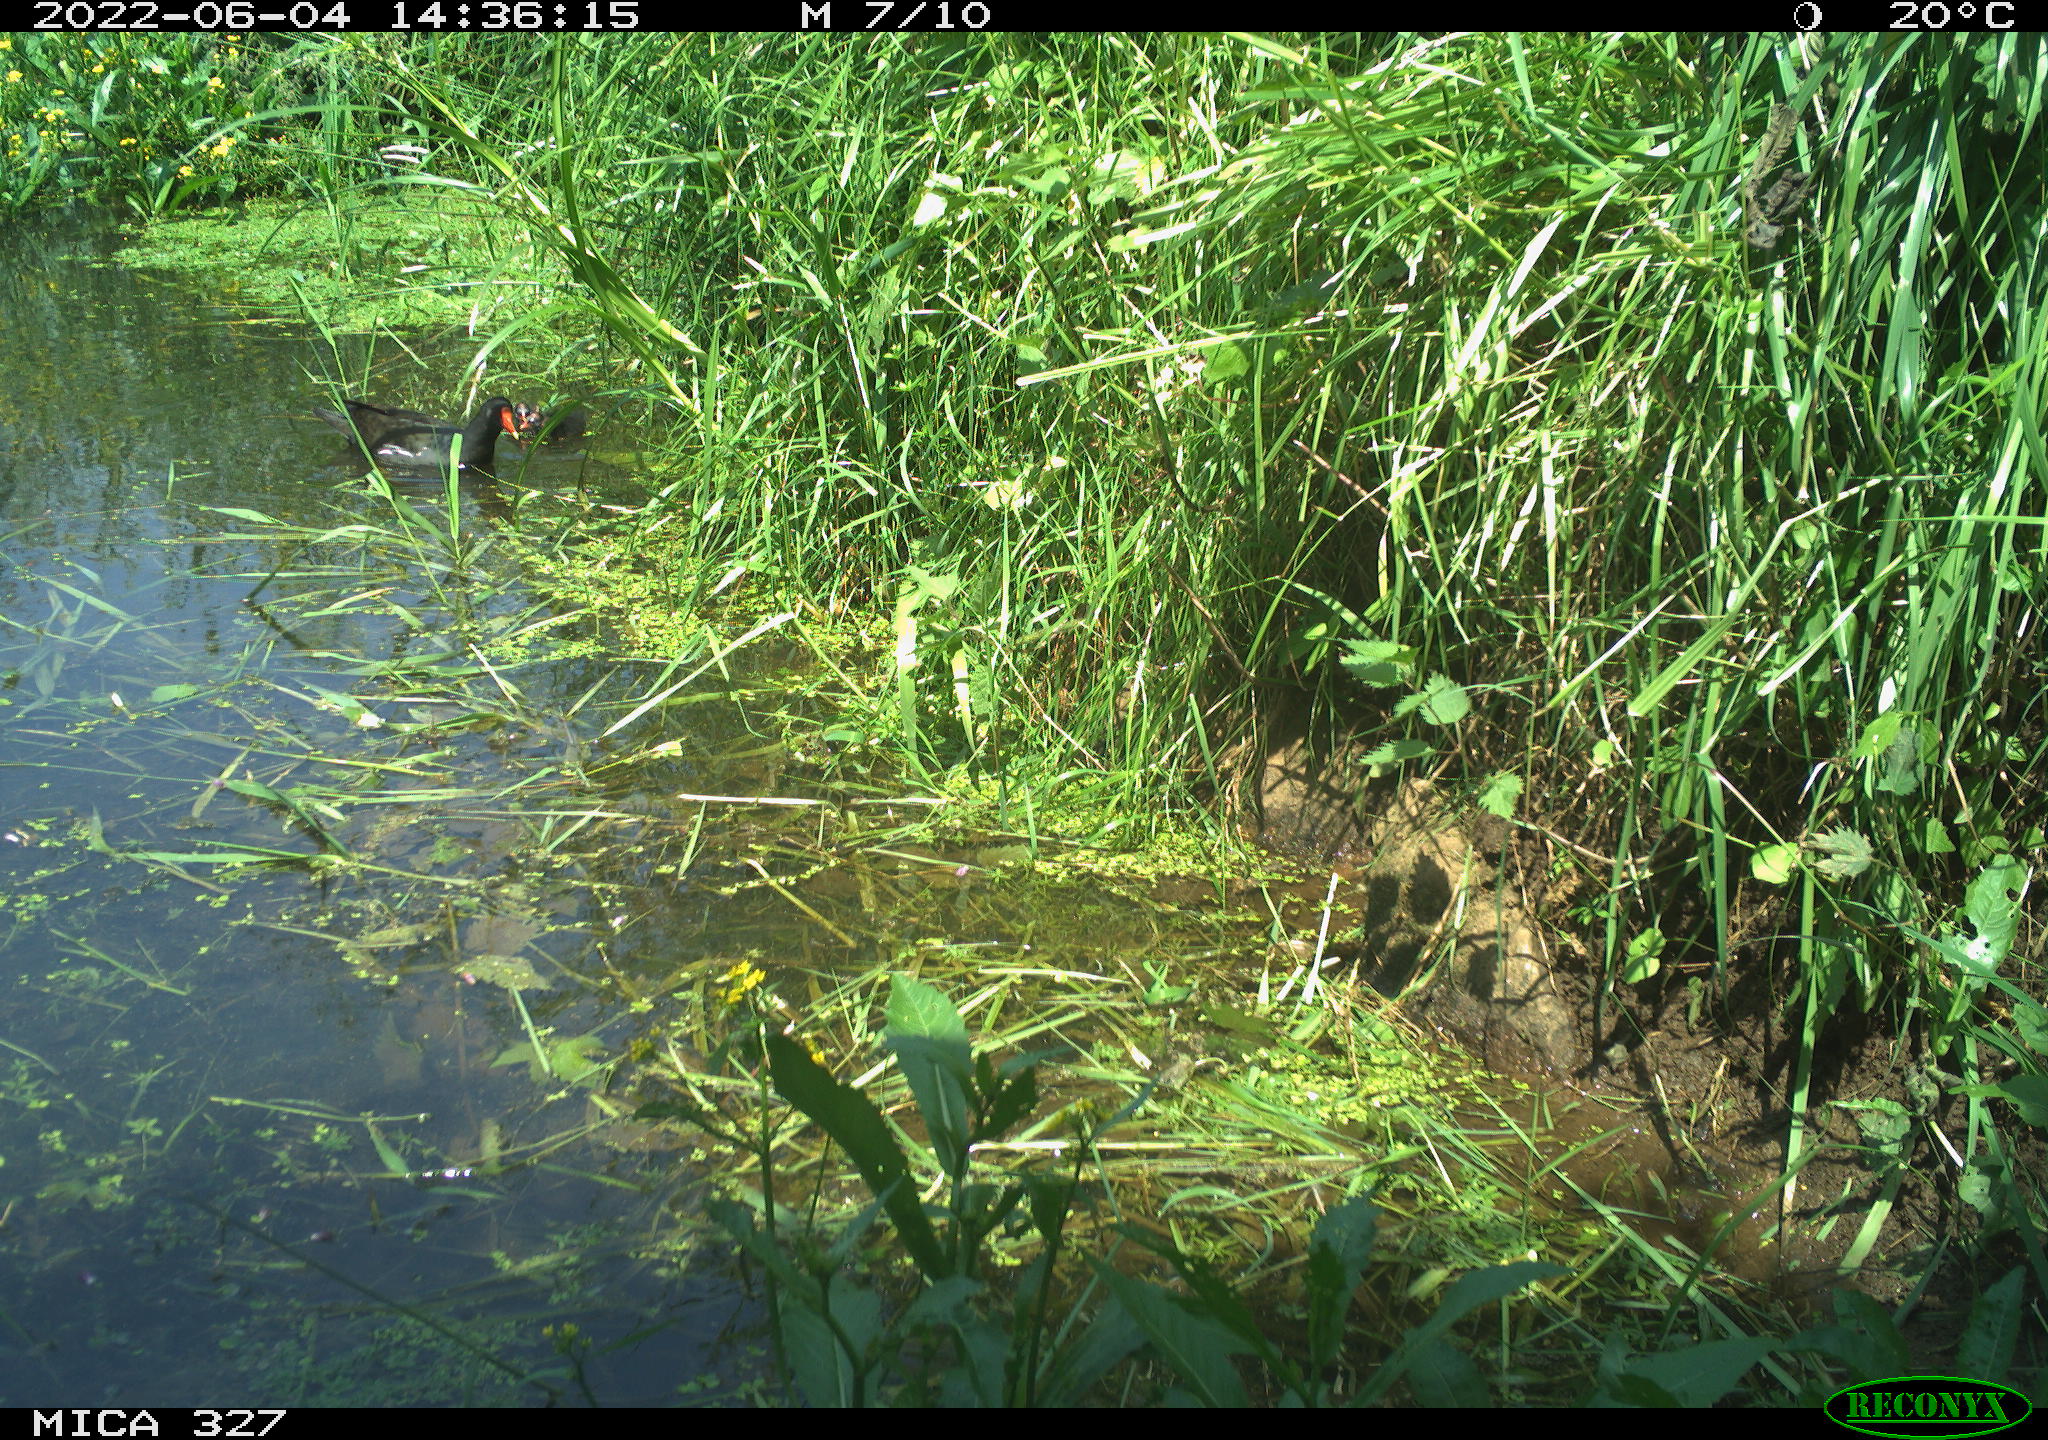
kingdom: Animalia
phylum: Chordata
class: Aves
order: Gruiformes
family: Rallidae
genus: Gallinula
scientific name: Gallinula chloropus
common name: Common moorhen
